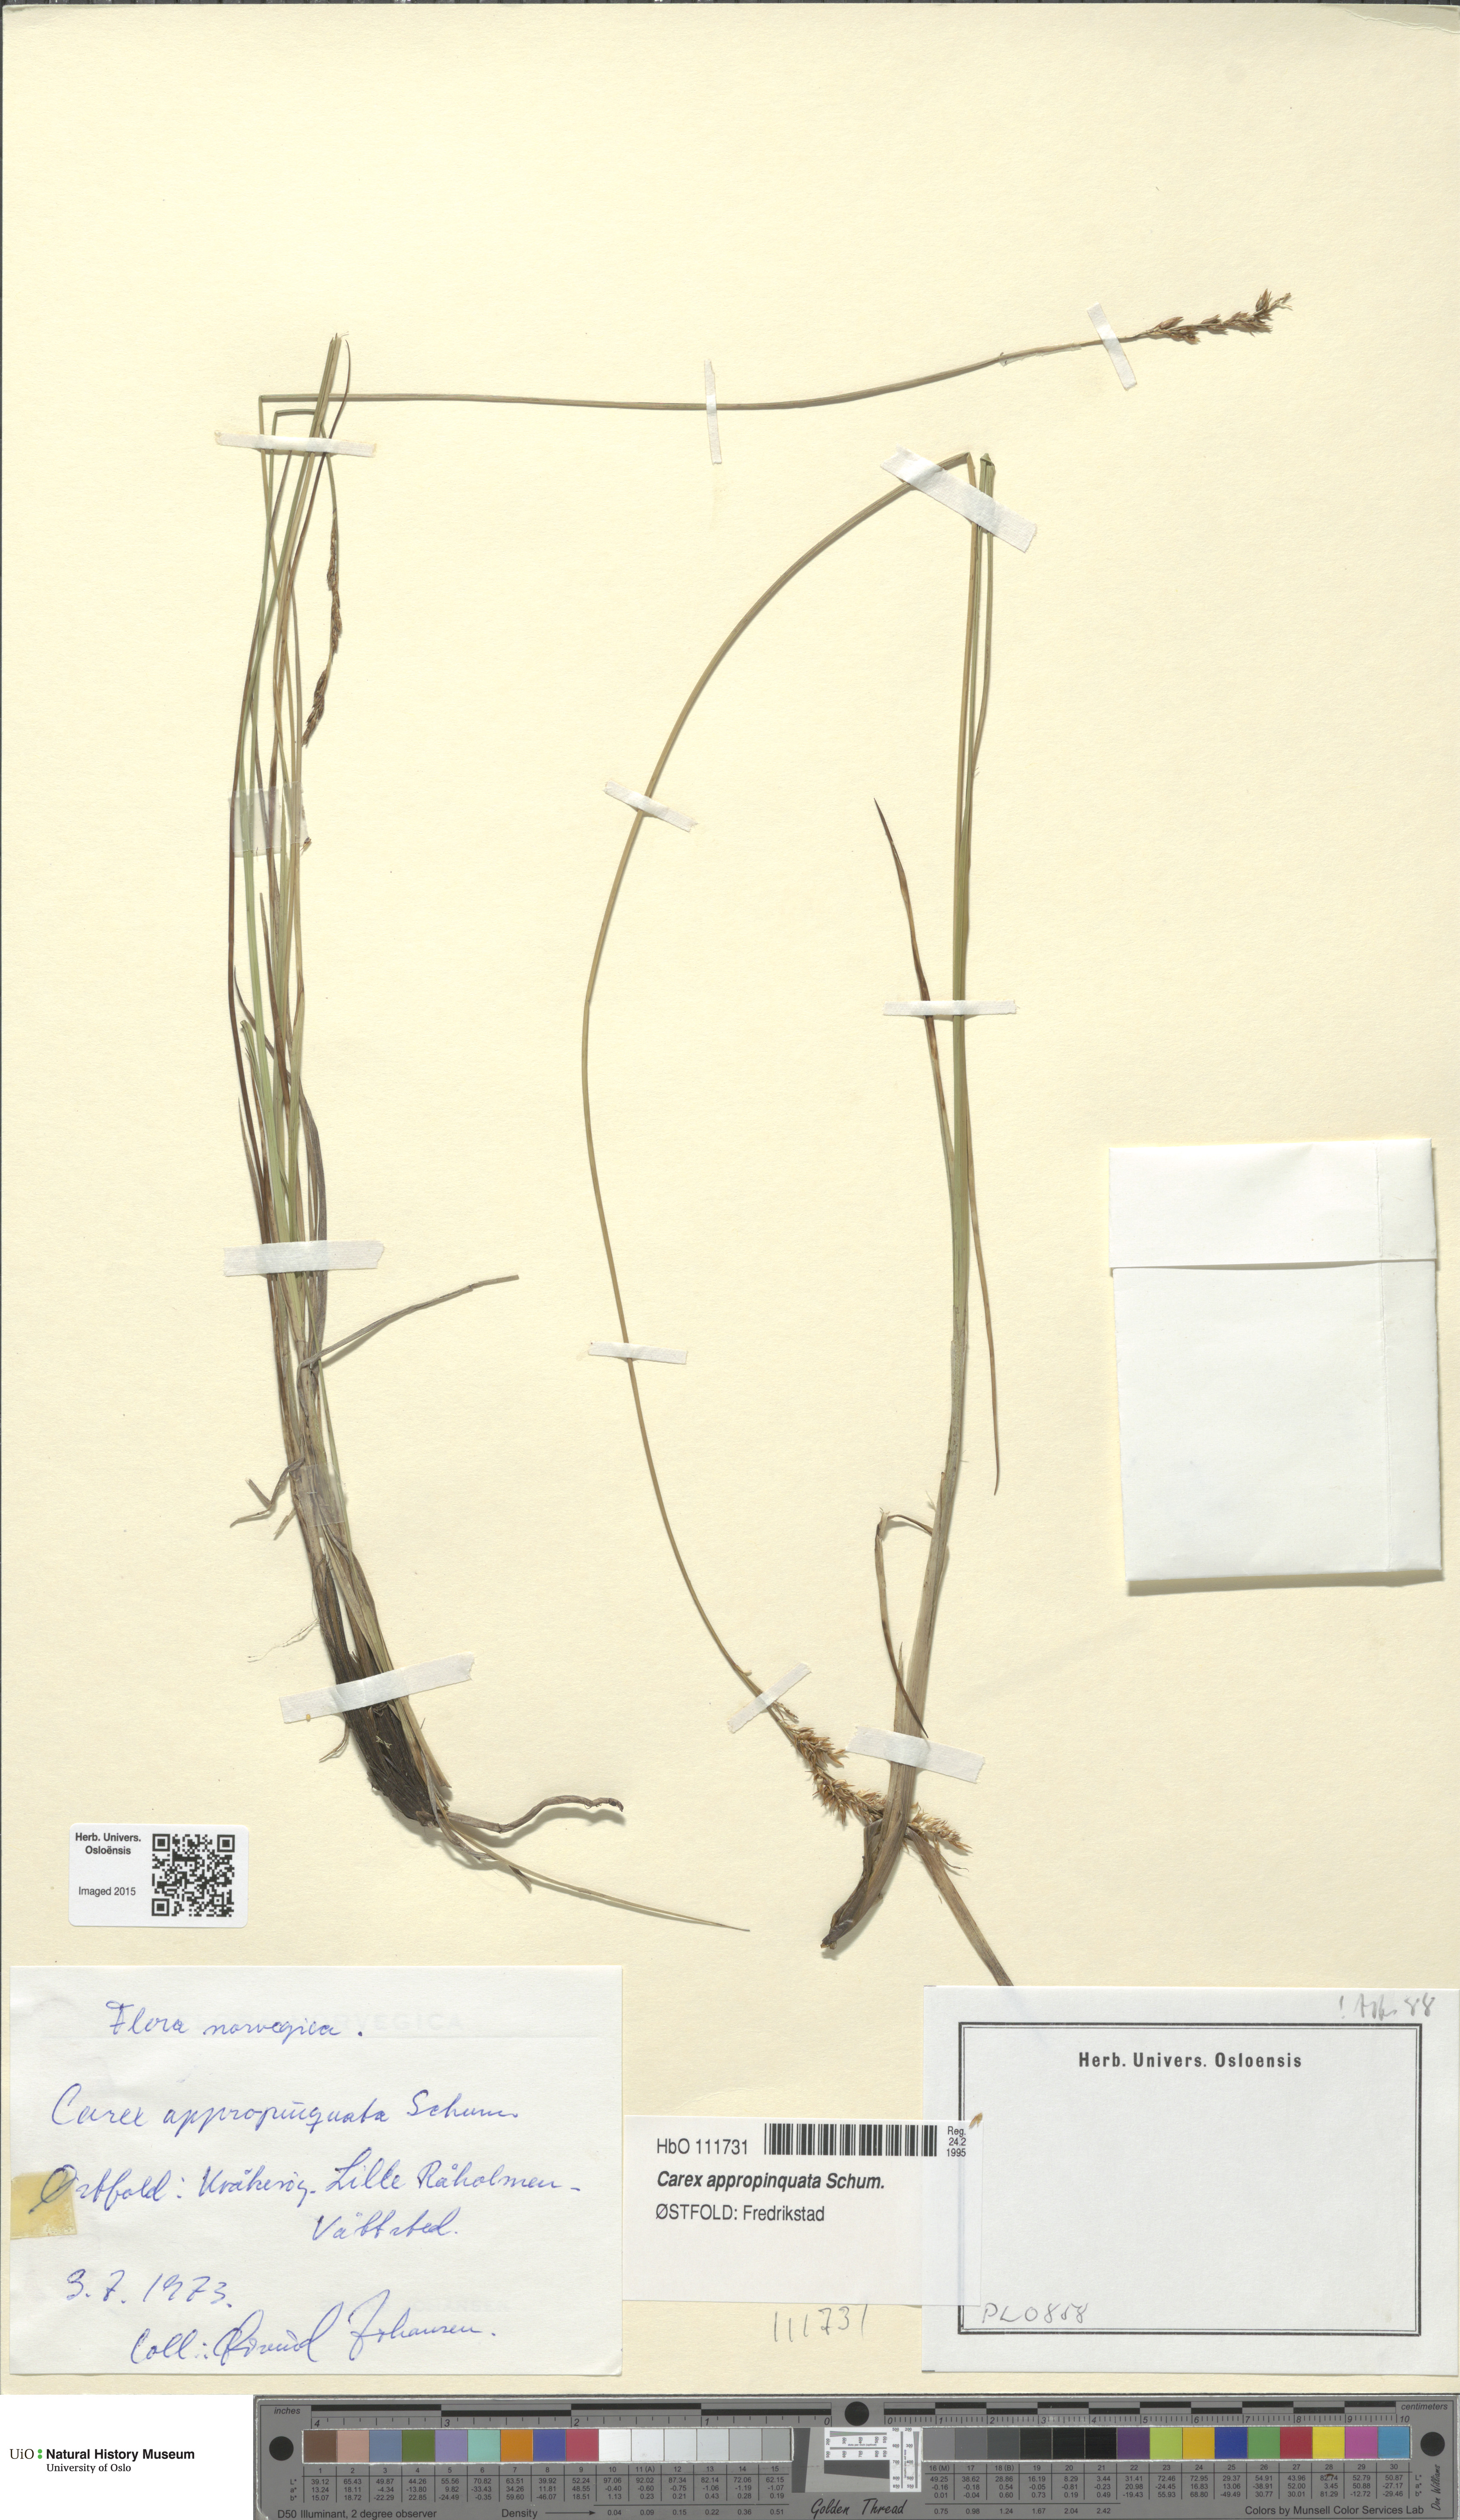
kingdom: Plantae
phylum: Tracheophyta
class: Liliopsida
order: Poales
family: Cyperaceae
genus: Carex
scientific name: Carex appropinquata
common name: Fibrous tussock-sedge
